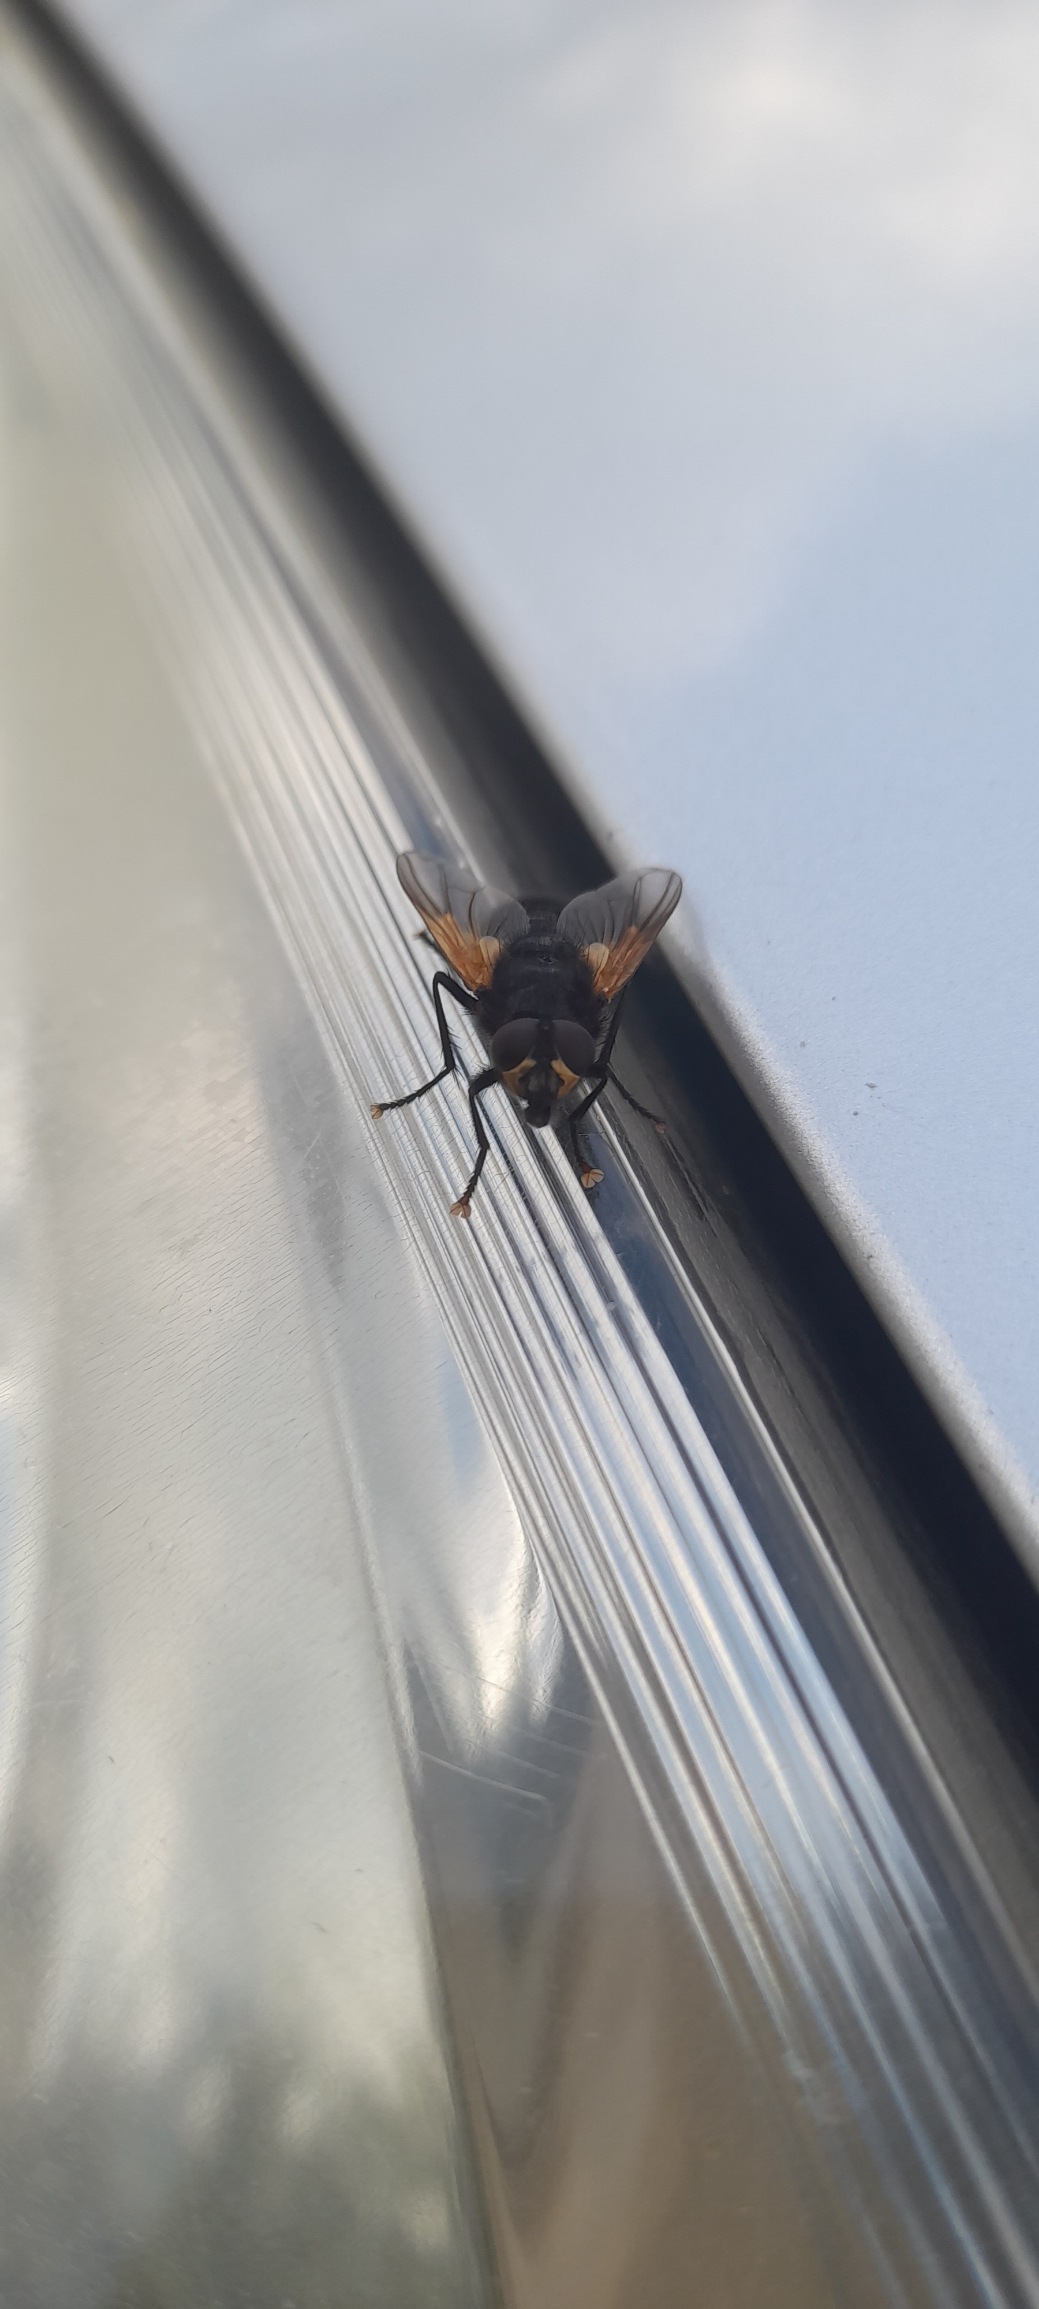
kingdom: Animalia
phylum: Arthropoda
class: Insecta
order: Diptera
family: Muscidae
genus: Mesembrina
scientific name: Mesembrina meridiana
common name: Gulvinget flue
